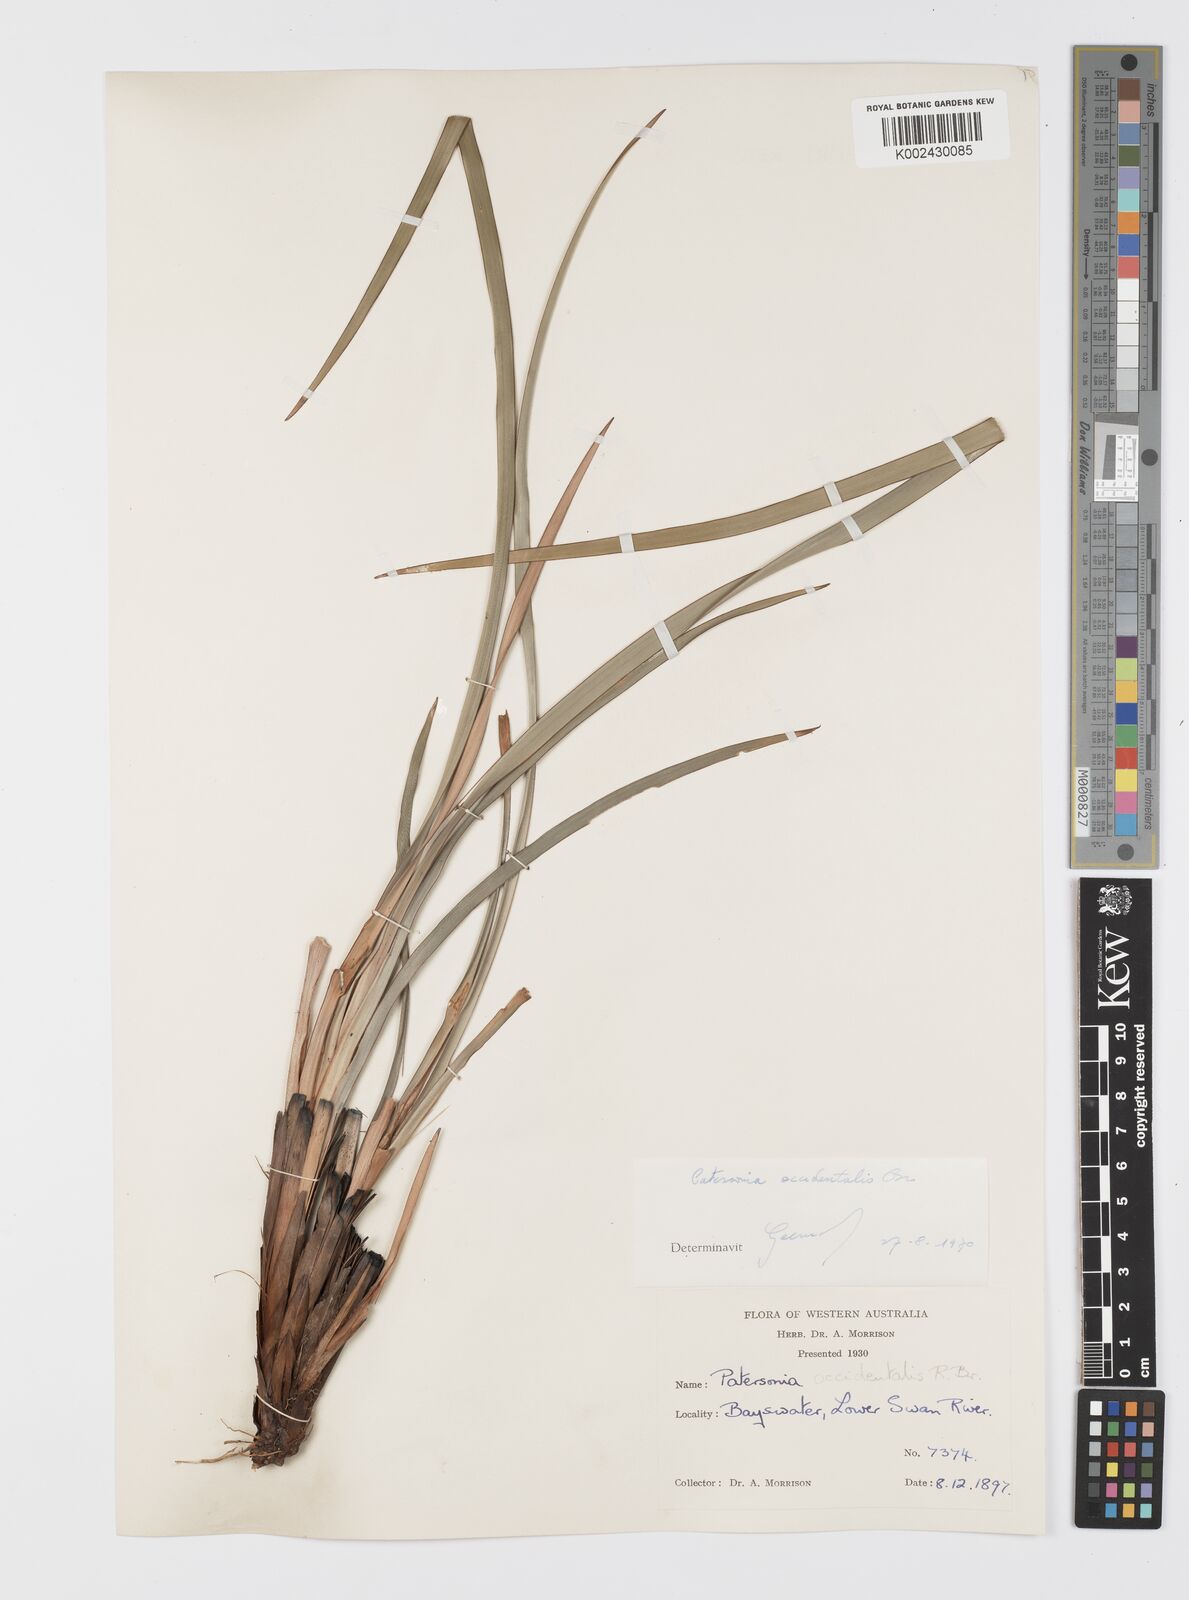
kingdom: Plantae
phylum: Tracheophyta
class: Liliopsida
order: Asparagales
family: Iridaceae
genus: Patersonia
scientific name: Patersonia occidentalis
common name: Long purple-flag
